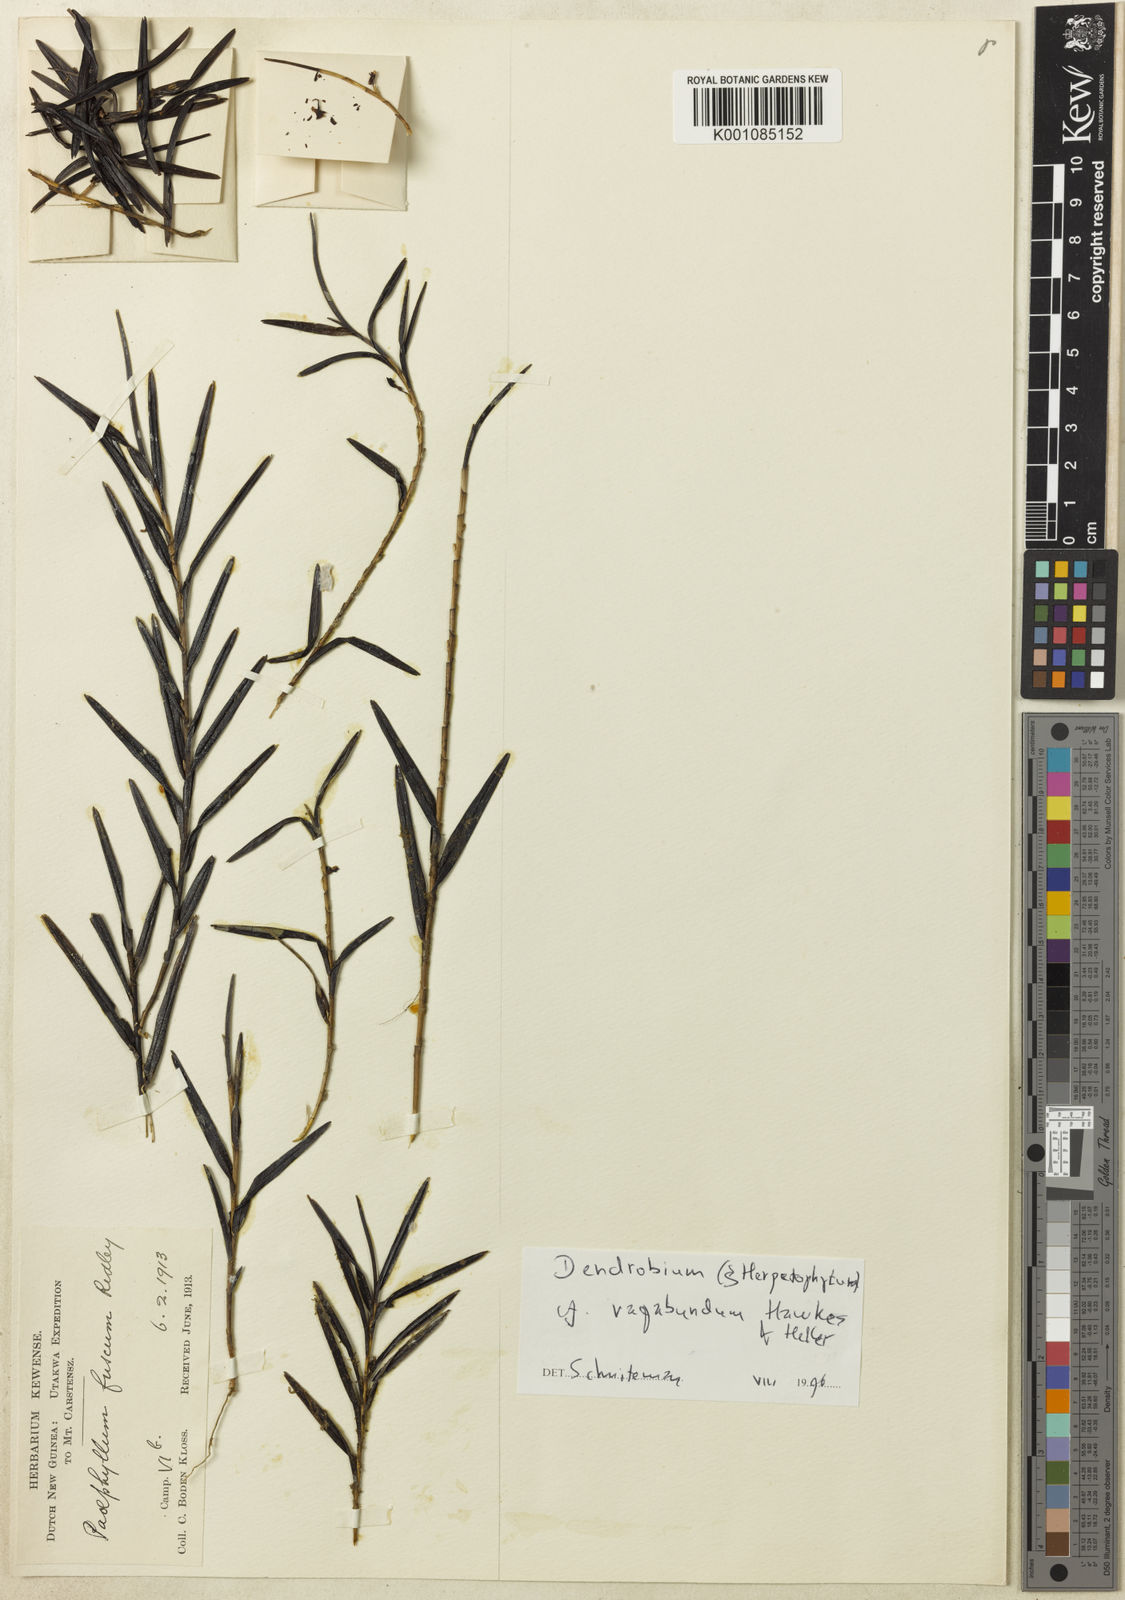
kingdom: Plantae
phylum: Tracheophyta
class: Liliopsida
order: Asparagales
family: Orchidaceae
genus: Dendrobium
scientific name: Dendrobium fusciflorum
